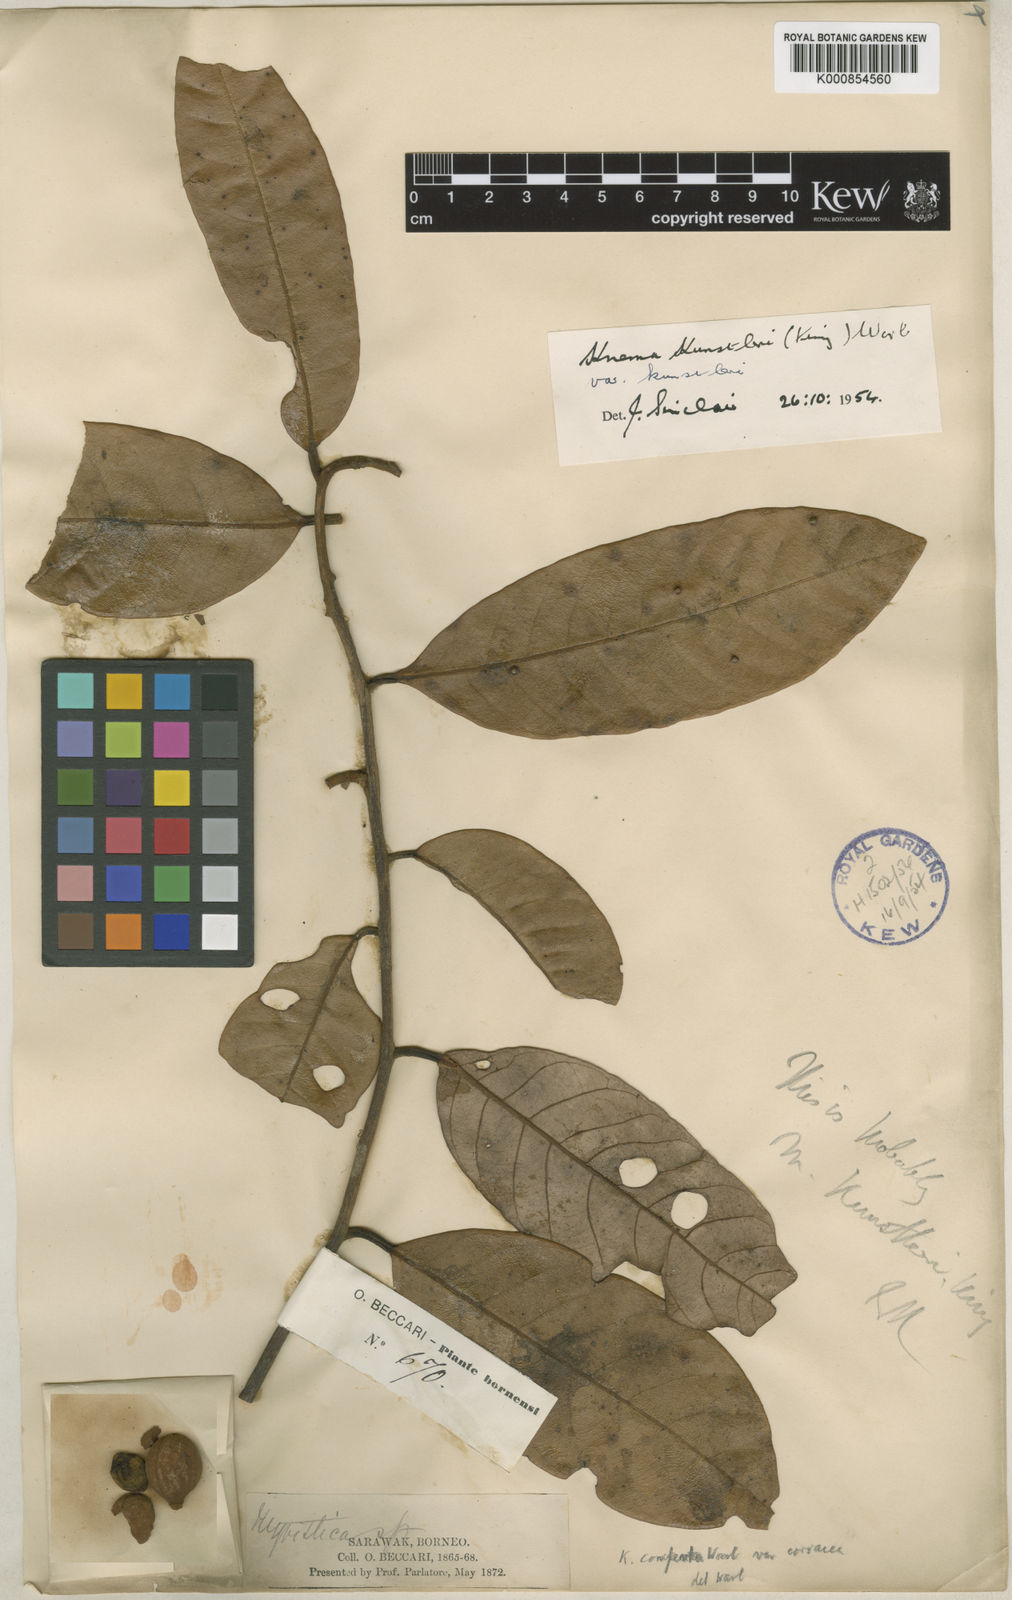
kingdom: Plantae
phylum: Tracheophyta
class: Magnoliopsida
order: Magnoliales
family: Myristicaceae
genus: Knema
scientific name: Knema kunstleri
